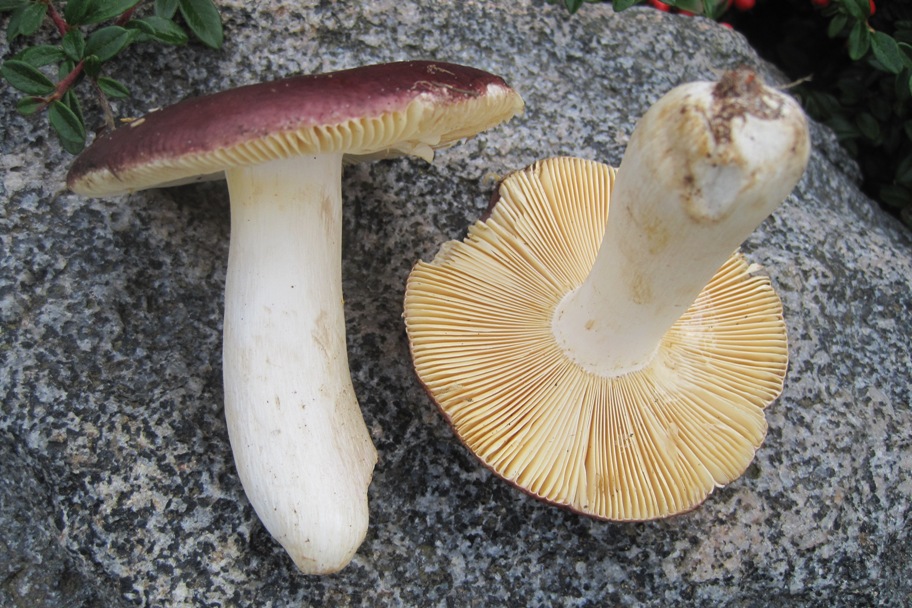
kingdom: Fungi
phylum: Basidiomycota
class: Agaricomycetes
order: Russulales
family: Russulaceae
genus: Russula
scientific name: Russula badia
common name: peber-skørhat
